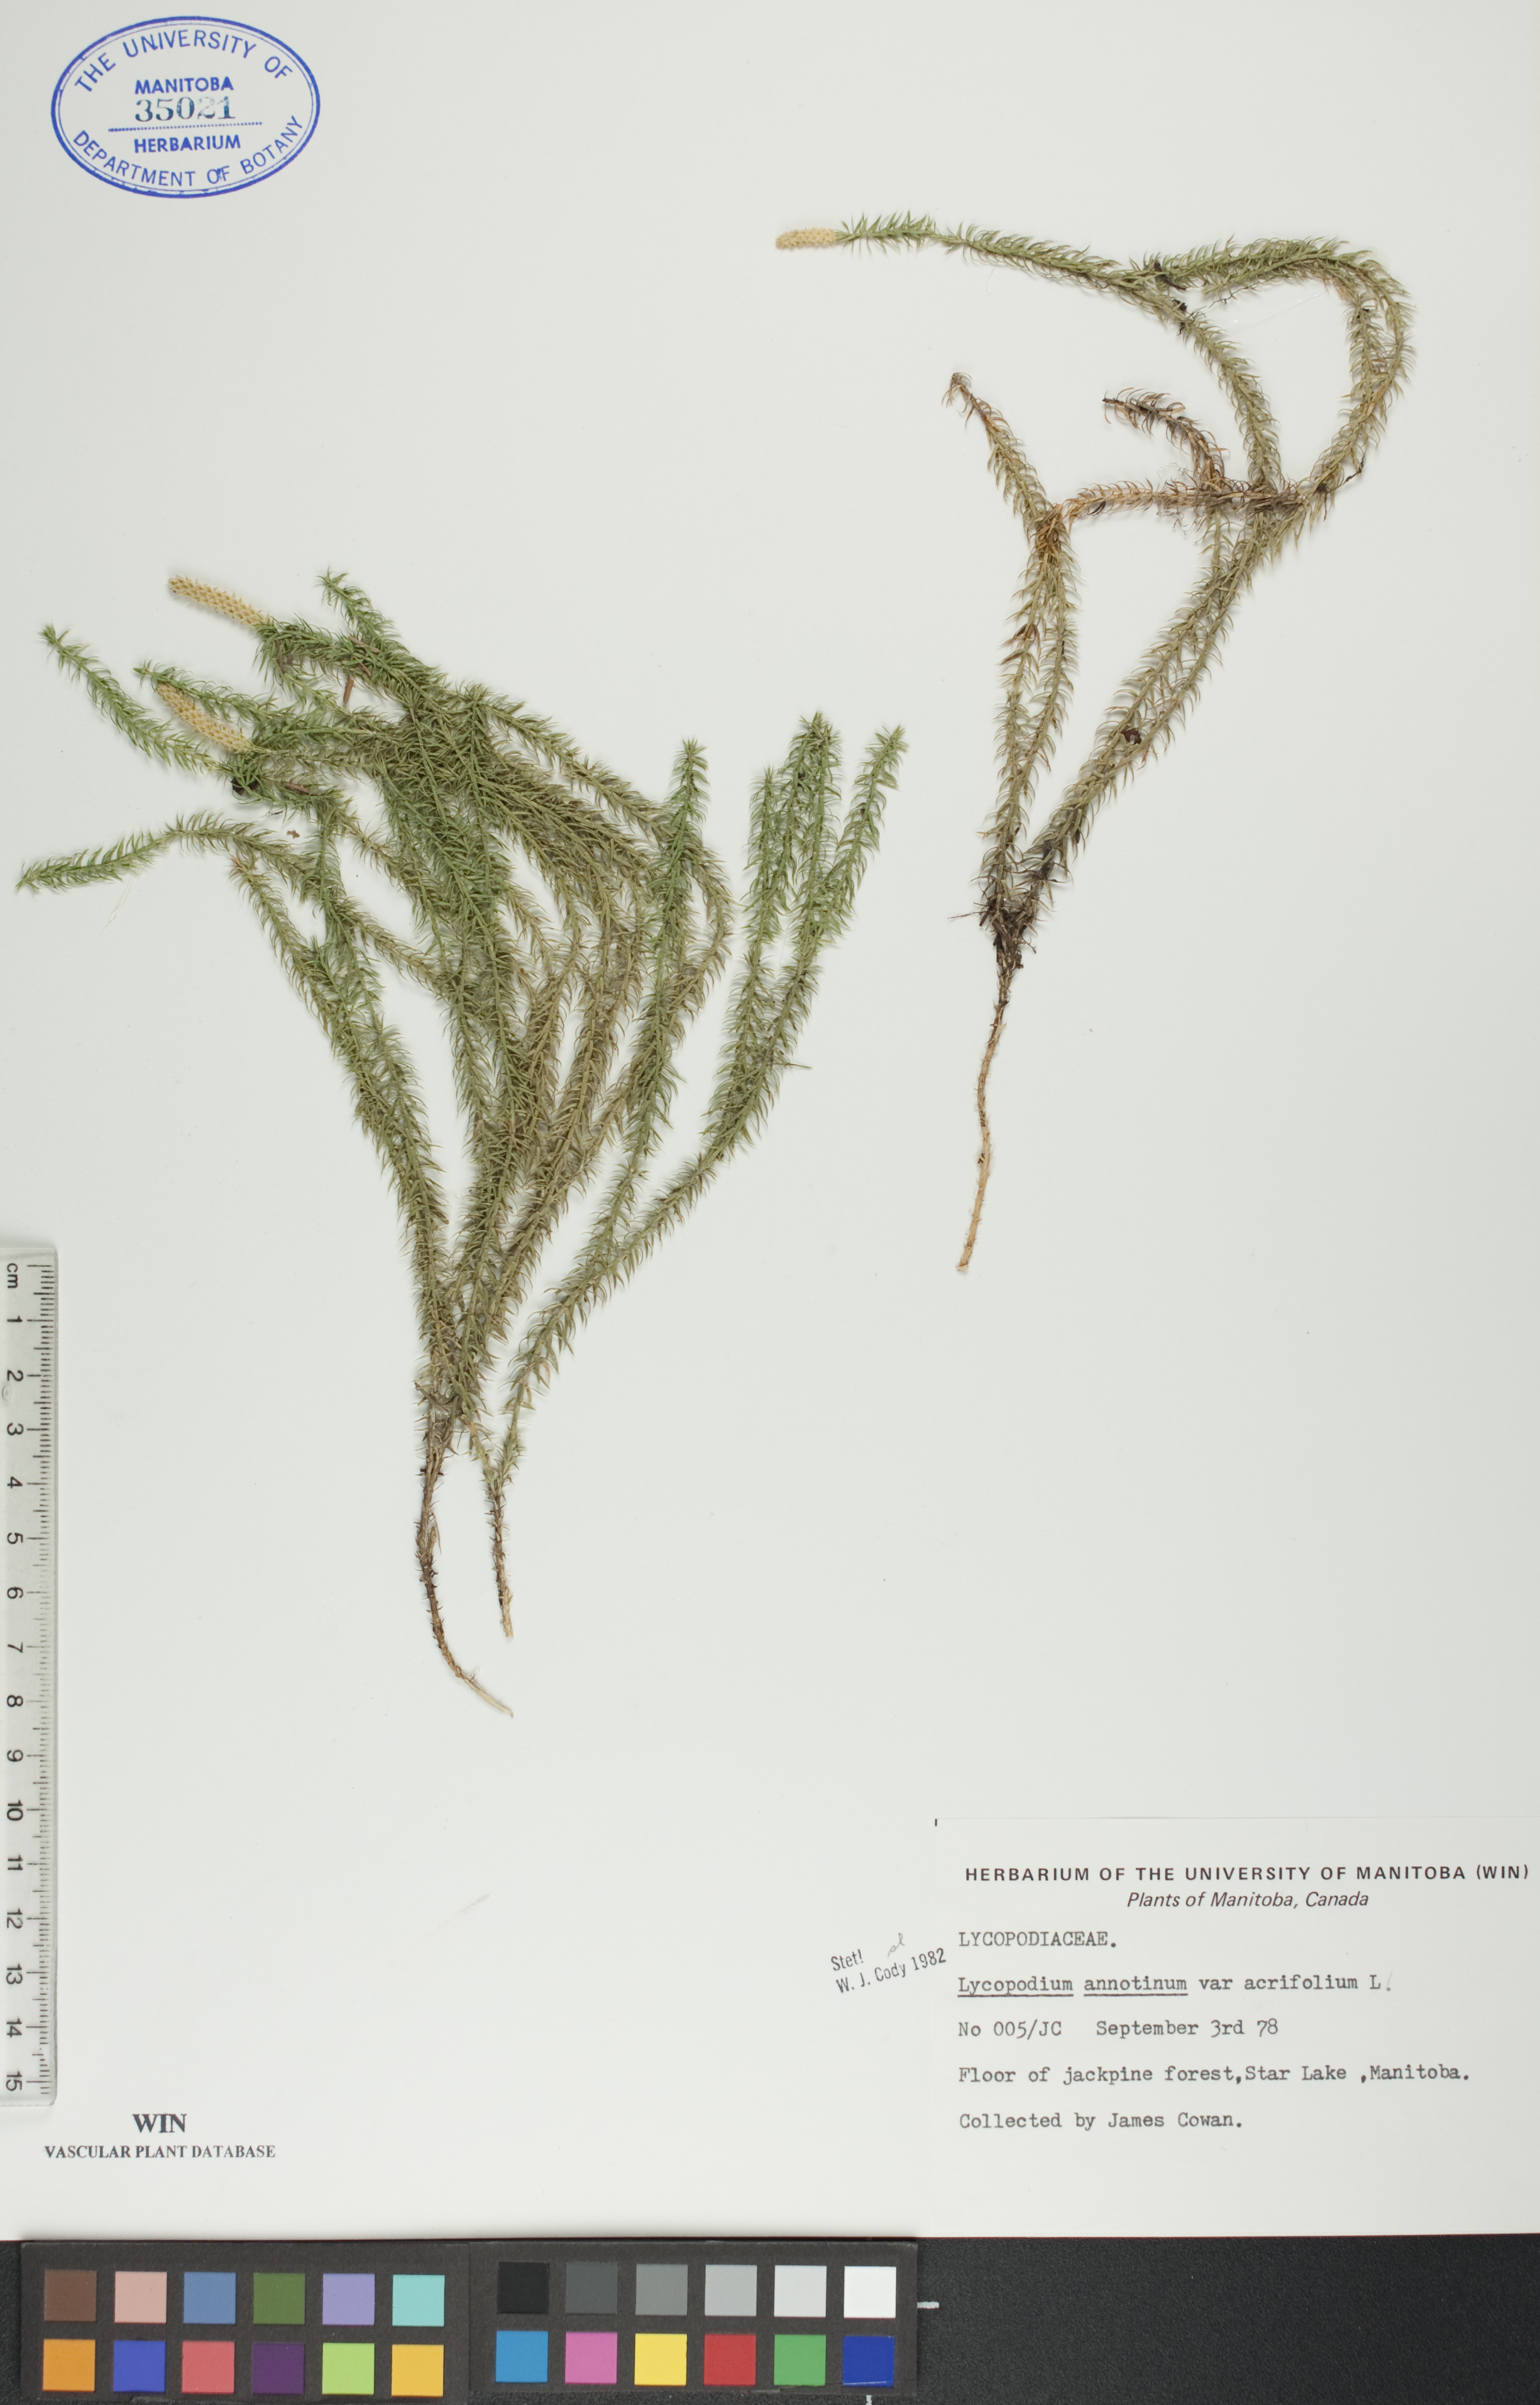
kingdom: Plantae
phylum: Tracheophyta
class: Lycopodiopsida
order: Lycopodiales
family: Lycopodiaceae
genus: Spinulum
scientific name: Spinulum annotinum
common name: Interrupted club-moss
